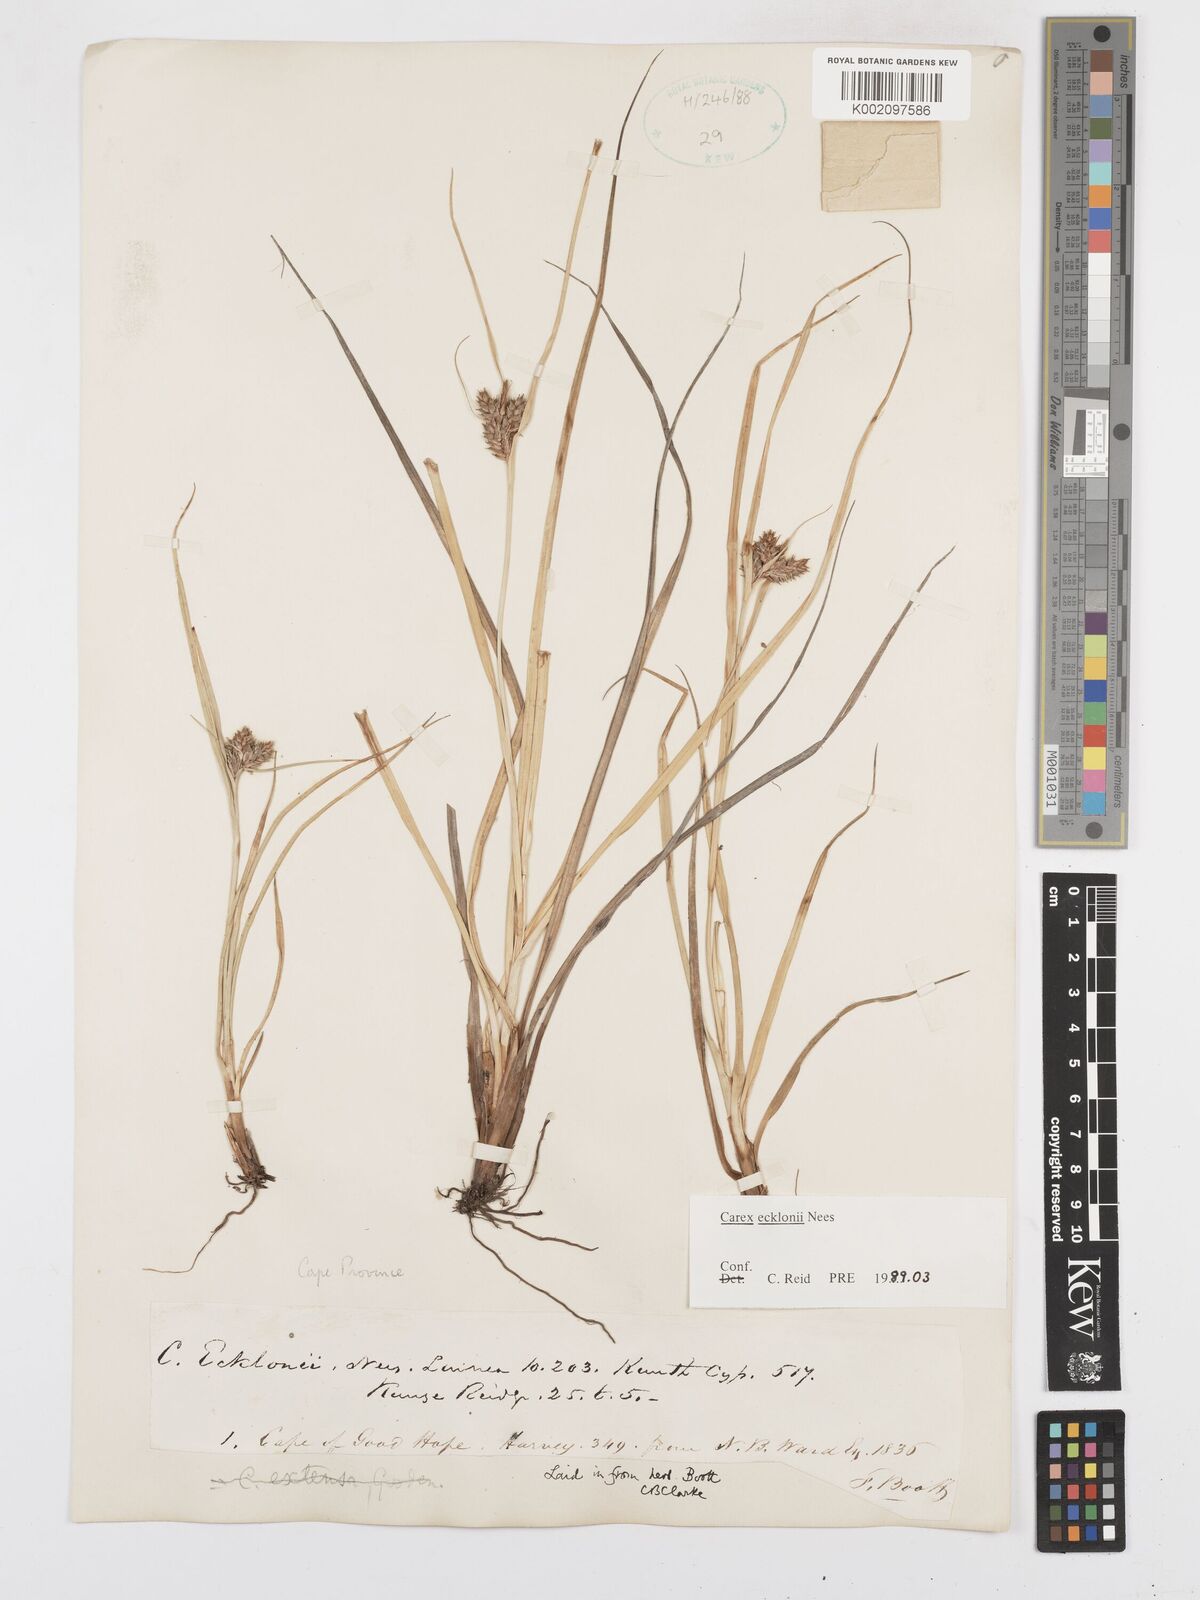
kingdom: Plantae
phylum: Tracheophyta
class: Liliopsida
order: Poales
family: Cyperaceae
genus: Carex
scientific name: Carex extensa
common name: Long-bracted sedge
